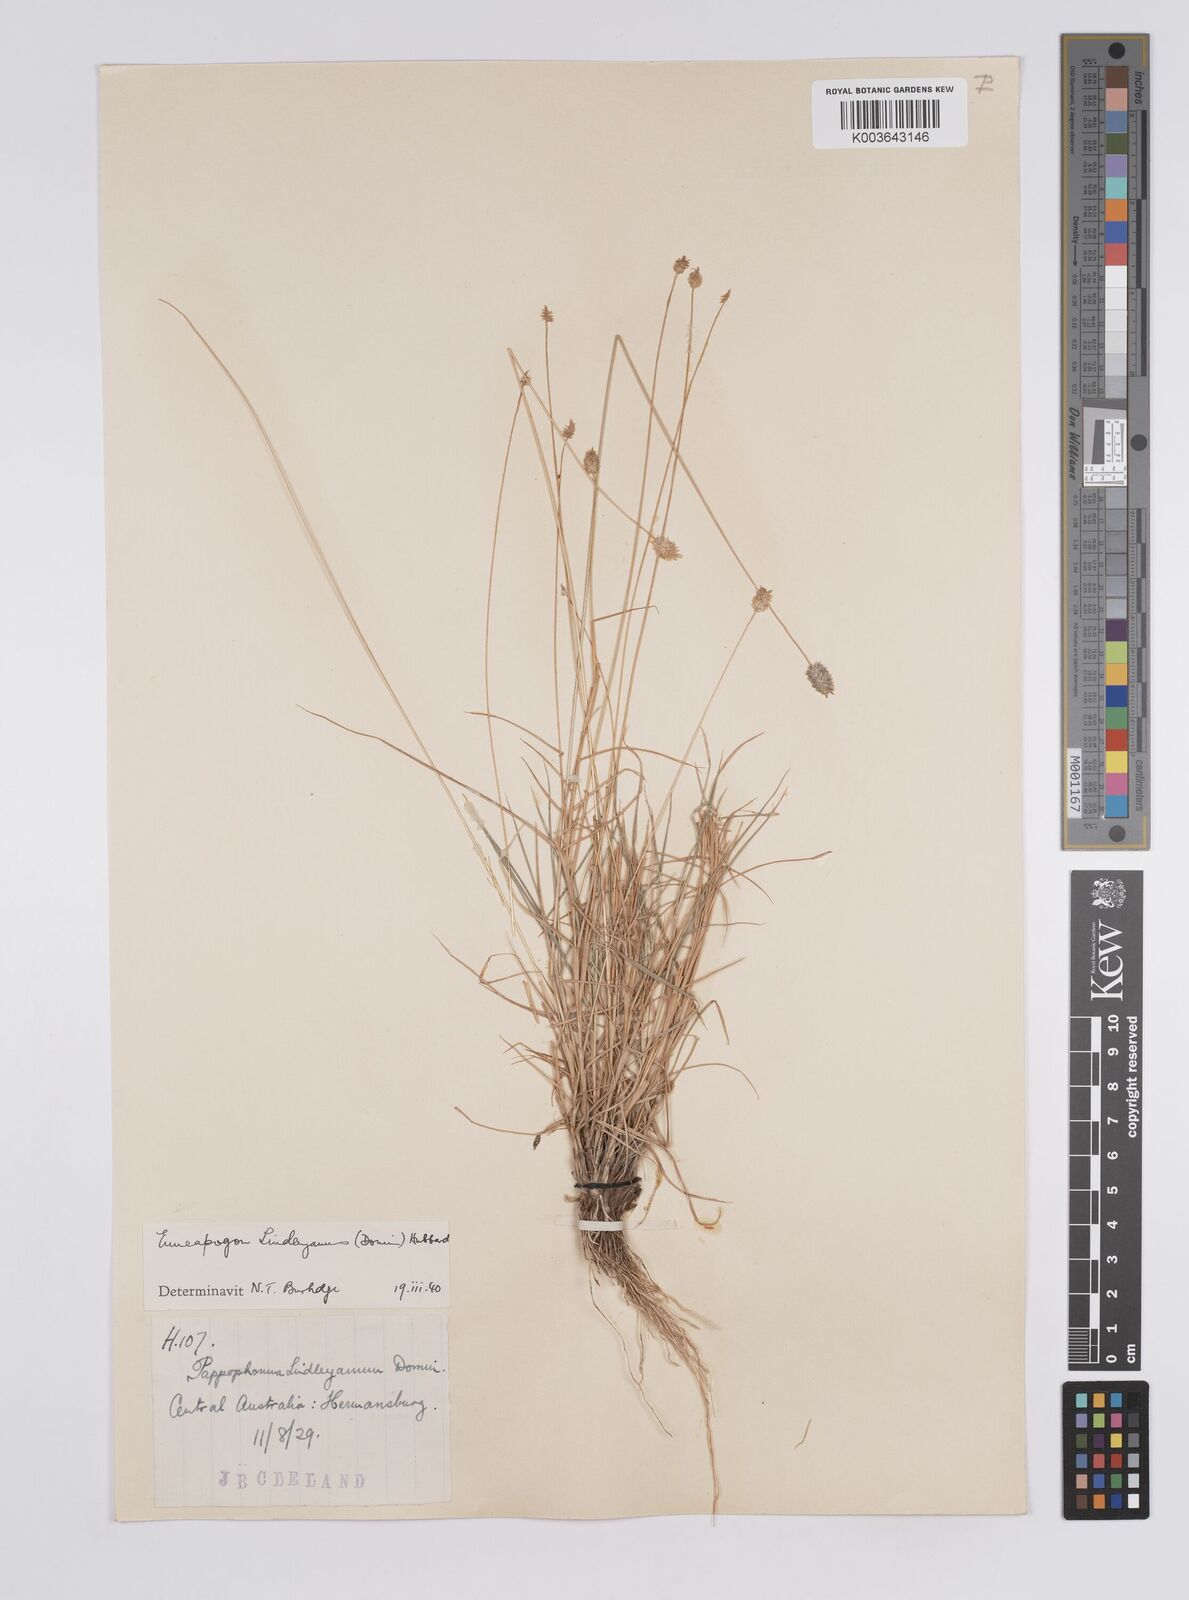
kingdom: Plantae
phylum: Tracheophyta
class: Liliopsida
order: Poales
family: Poaceae
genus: Enneapogon
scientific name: Enneapogon lindleyanus
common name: Conetop nineawn
